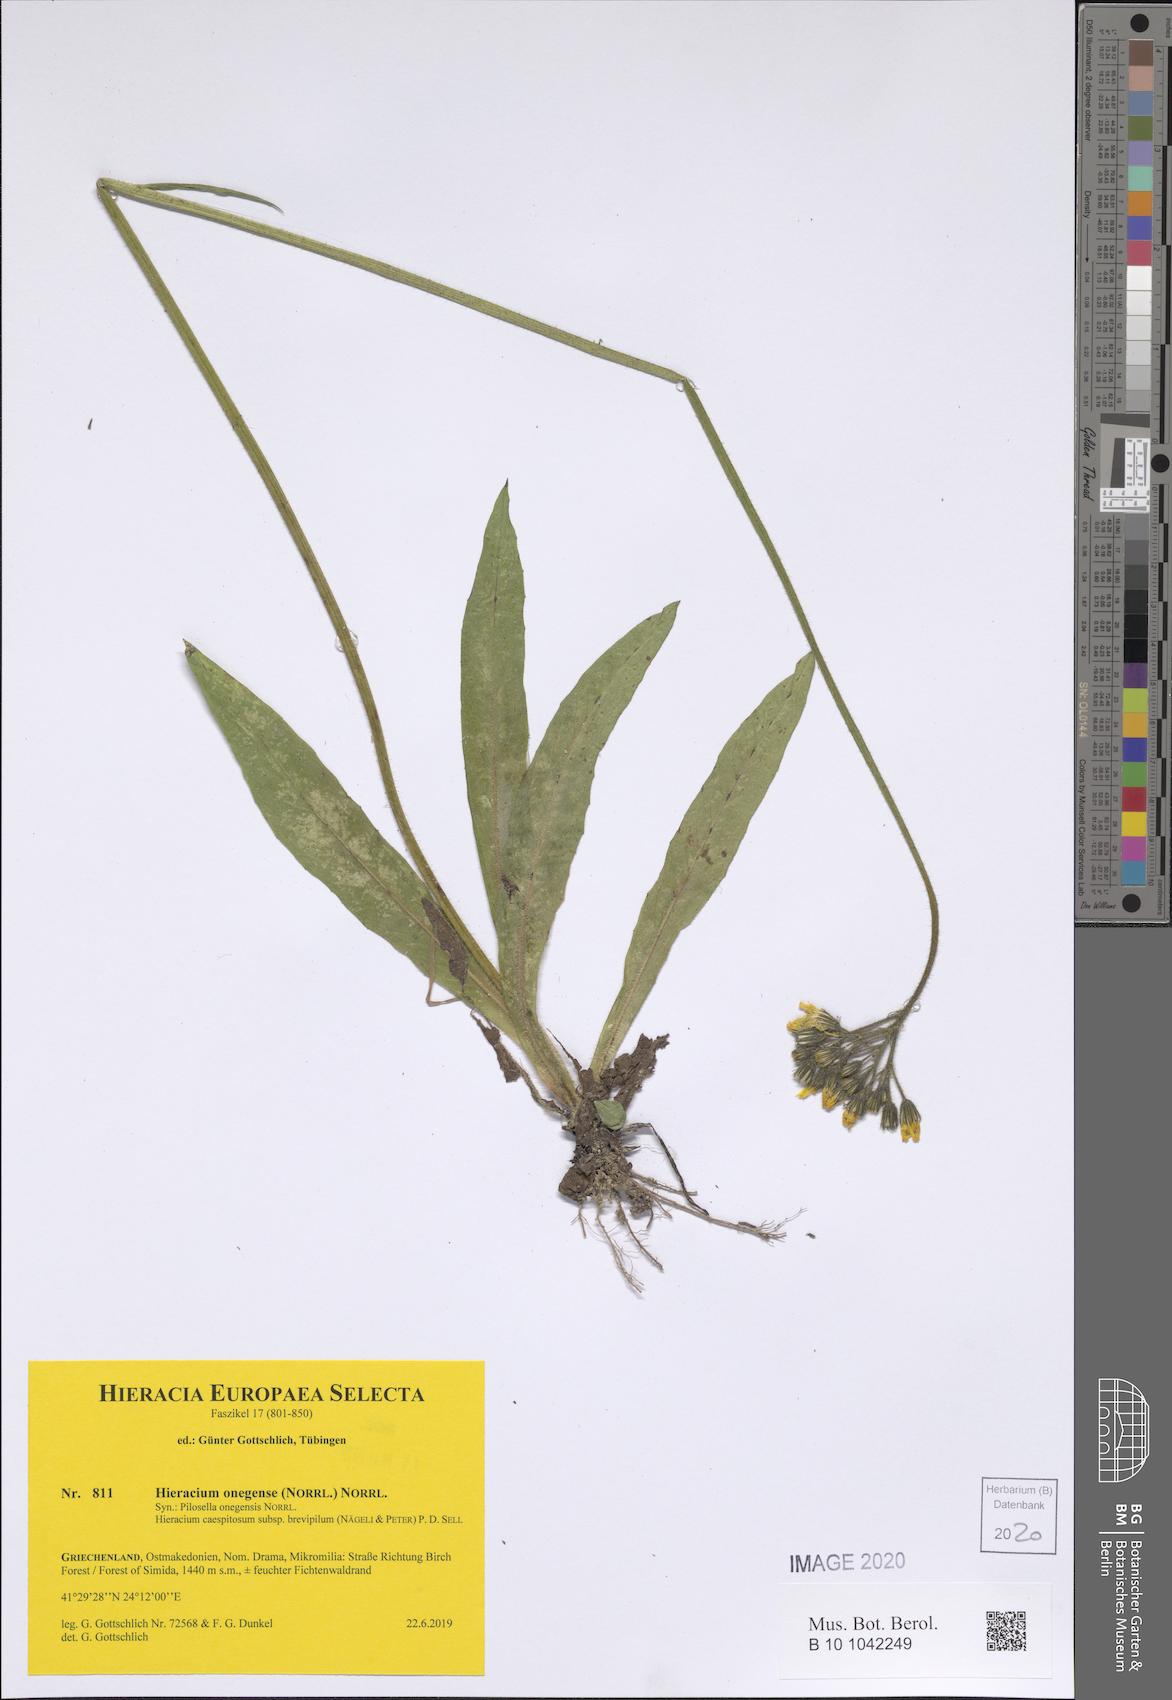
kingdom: Plantae
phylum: Tracheophyta
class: Magnoliopsida
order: Asterales
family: Asteraceae
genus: Pilosella
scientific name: Pilosella onegensis
